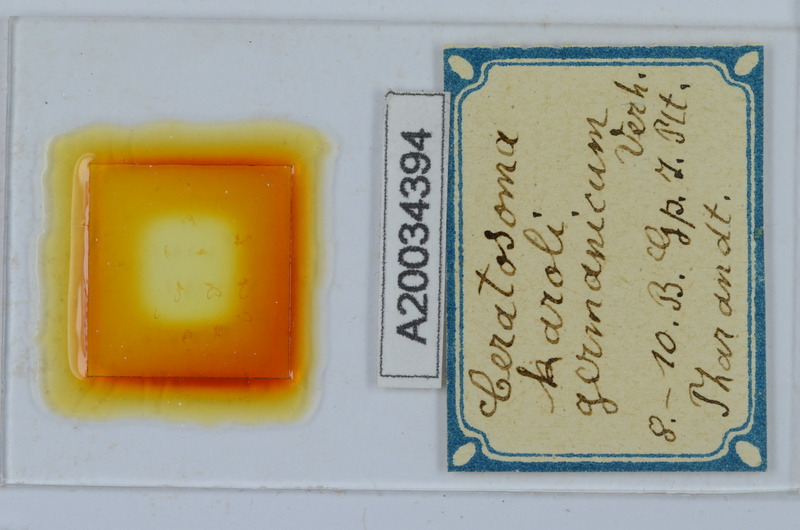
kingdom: Animalia
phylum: Arthropoda
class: Diplopoda
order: Chordeumatida
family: Craspedosomatidae
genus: Ochogona
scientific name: Ochogona caroli
